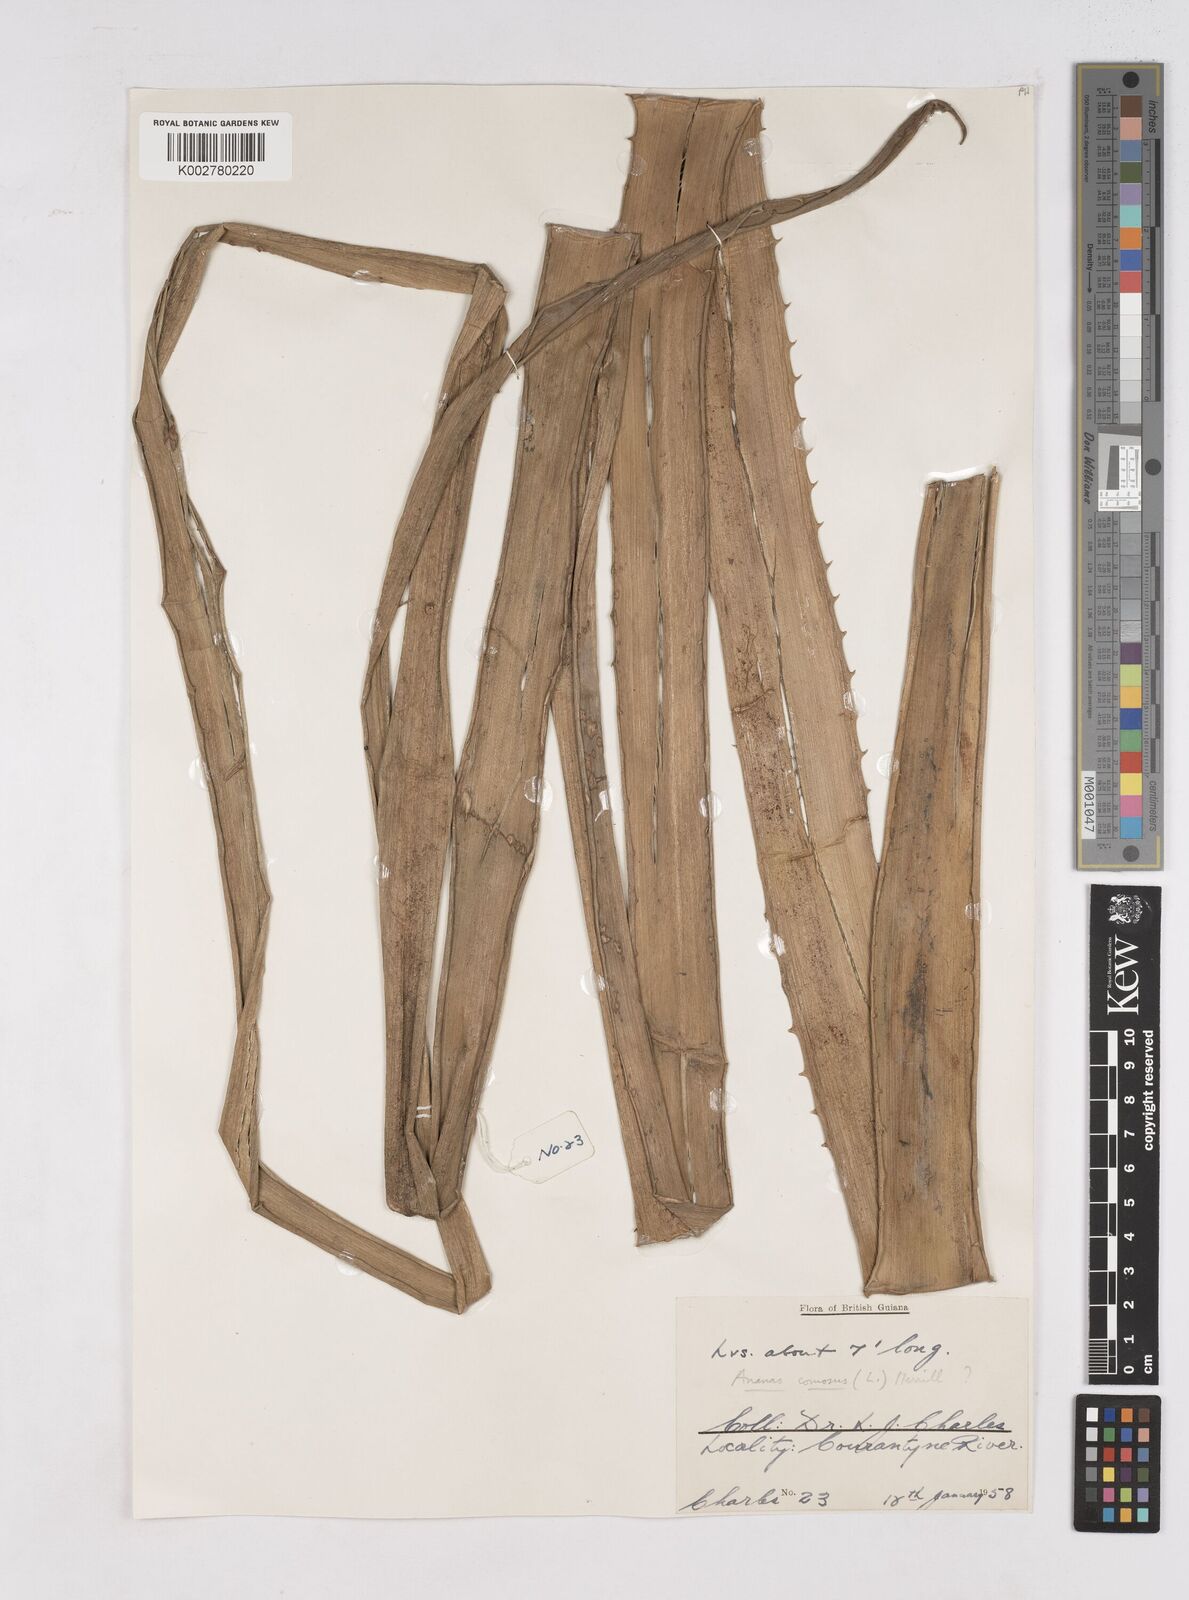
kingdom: Plantae
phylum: Tracheophyta
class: Liliopsida
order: Poales
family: Bromeliaceae
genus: Ananas
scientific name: Ananas comosus
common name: Pineapple
